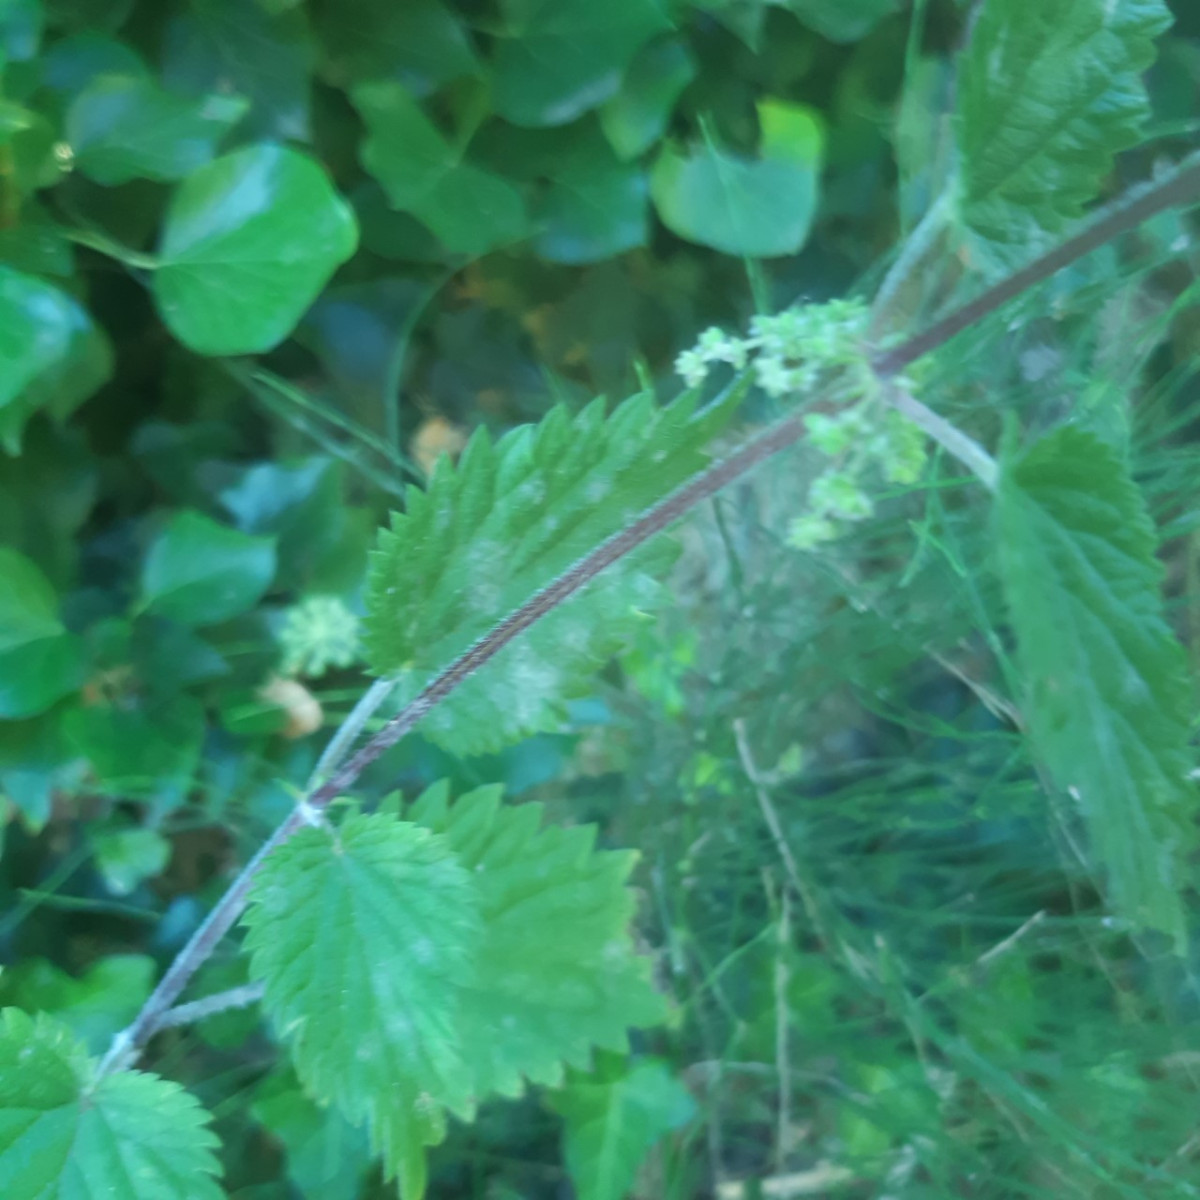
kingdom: Fungi
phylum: Ascomycota
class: Leotiomycetes
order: Helotiales
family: Erysiphaceae
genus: Erysiphe
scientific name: Erysiphe urticae
